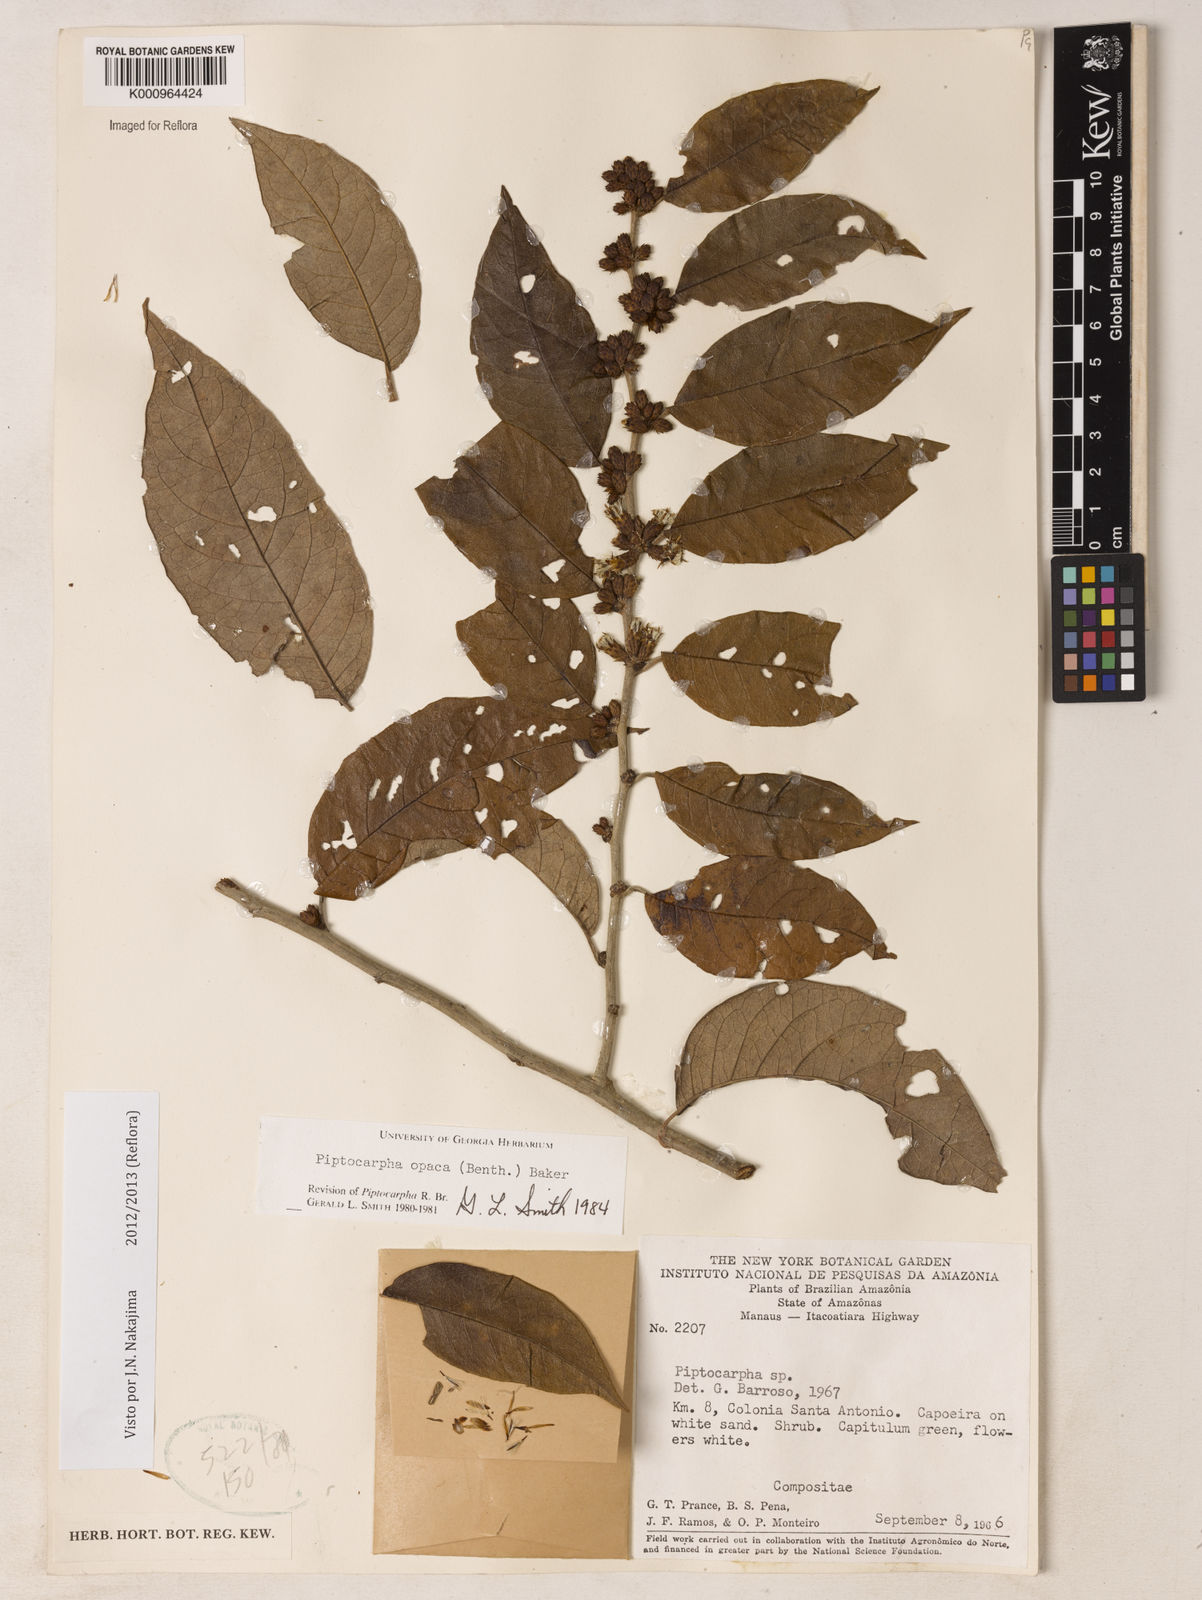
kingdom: Plantae
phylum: Tracheophyta
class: Magnoliopsida
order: Asterales
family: Asteraceae
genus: Piptocarpha
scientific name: Piptocarpha opaca
